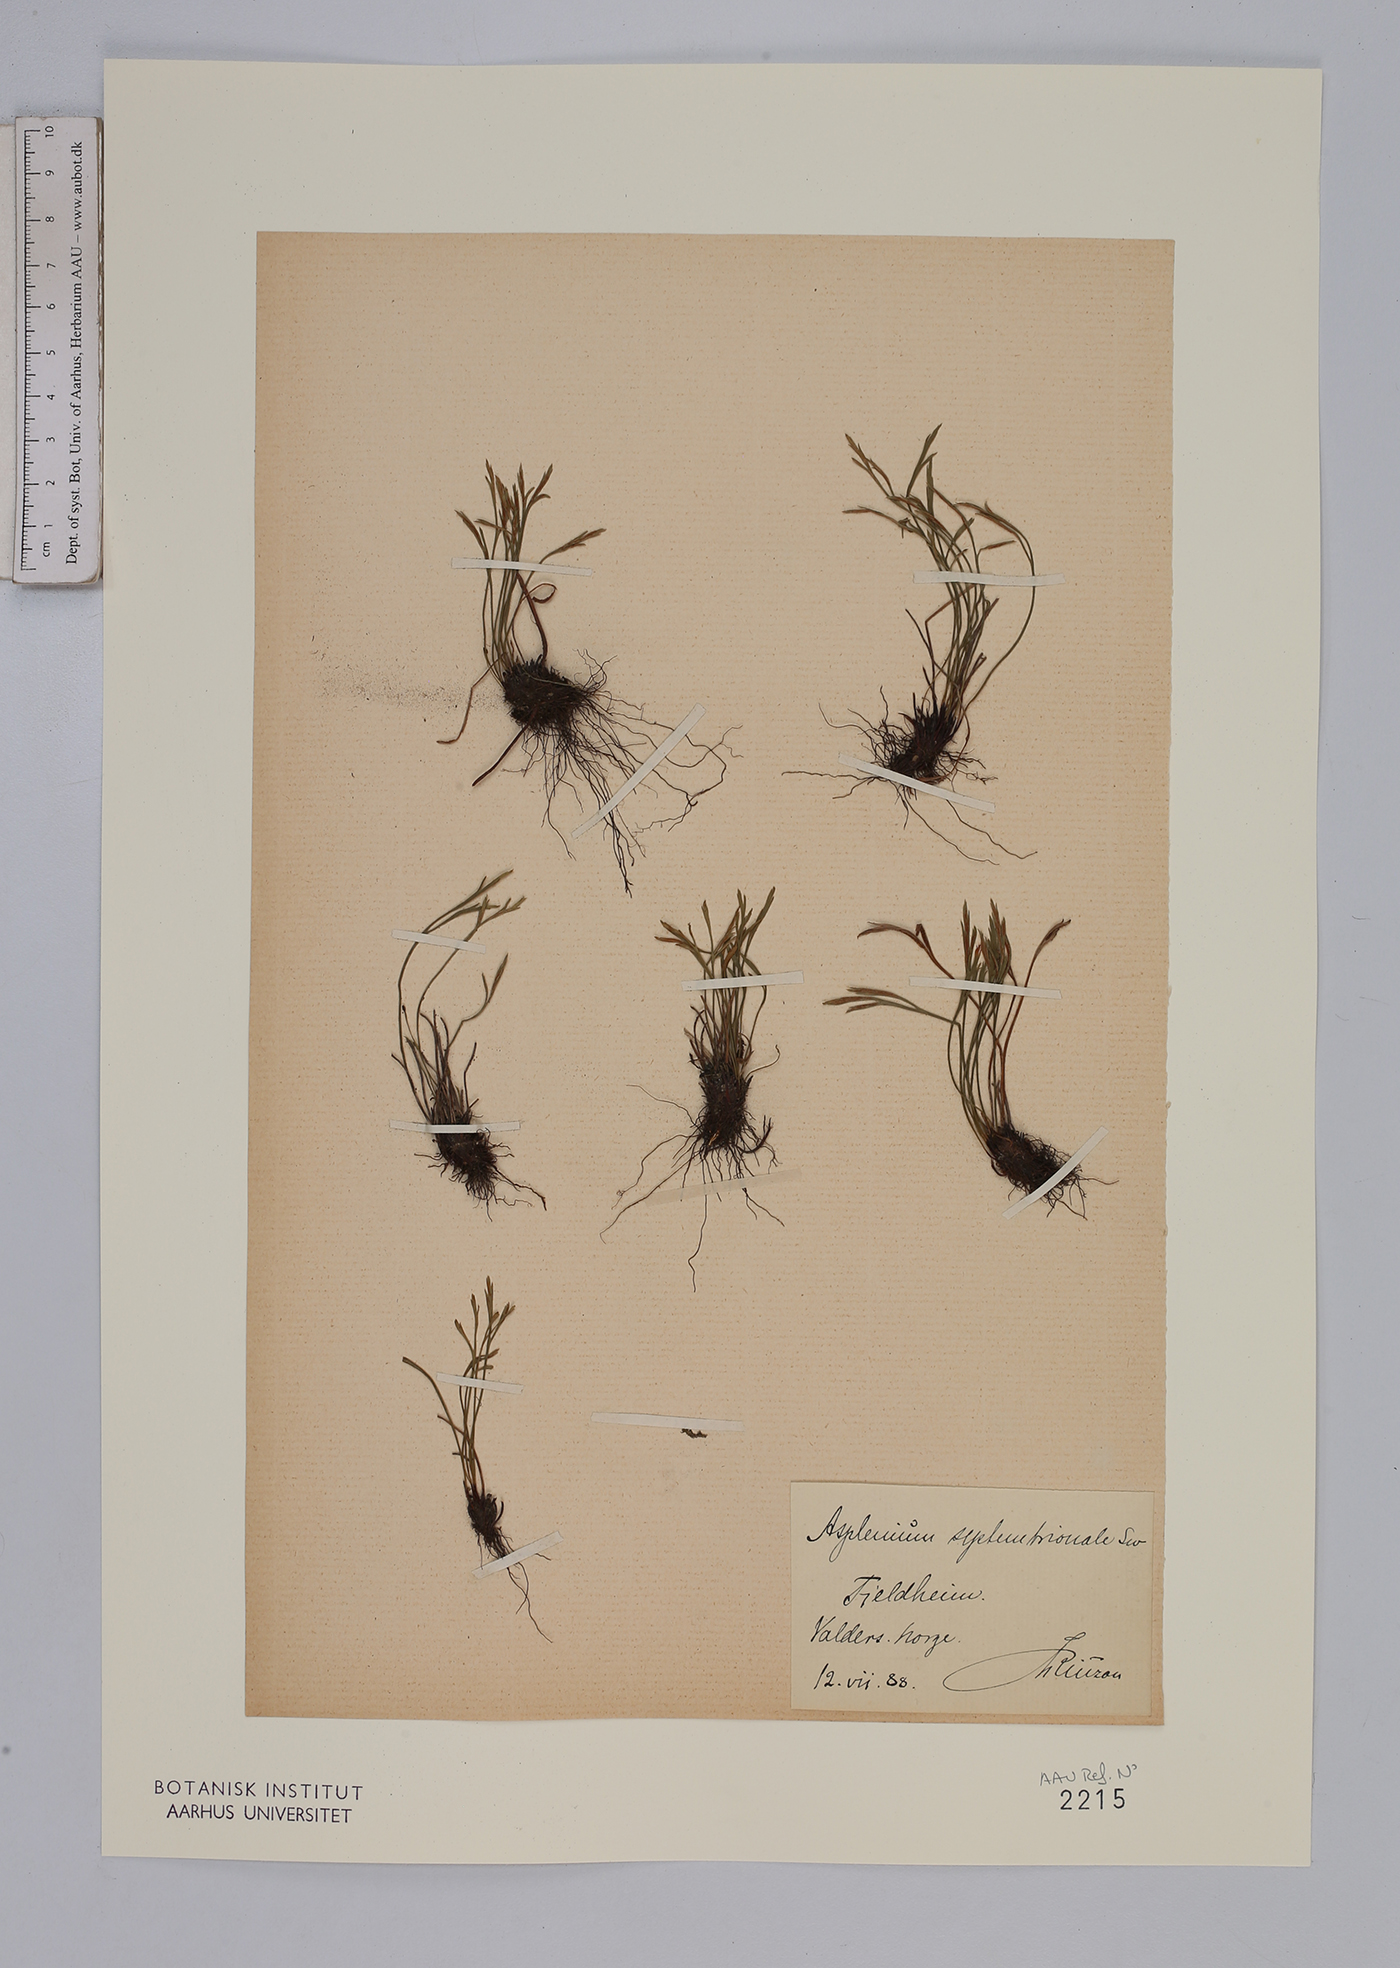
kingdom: Plantae
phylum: Tracheophyta
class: Polypodiopsida
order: Polypodiales
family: Aspleniaceae
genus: Asplenium
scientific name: Asplenium septentrionale
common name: Forked spleenwort
